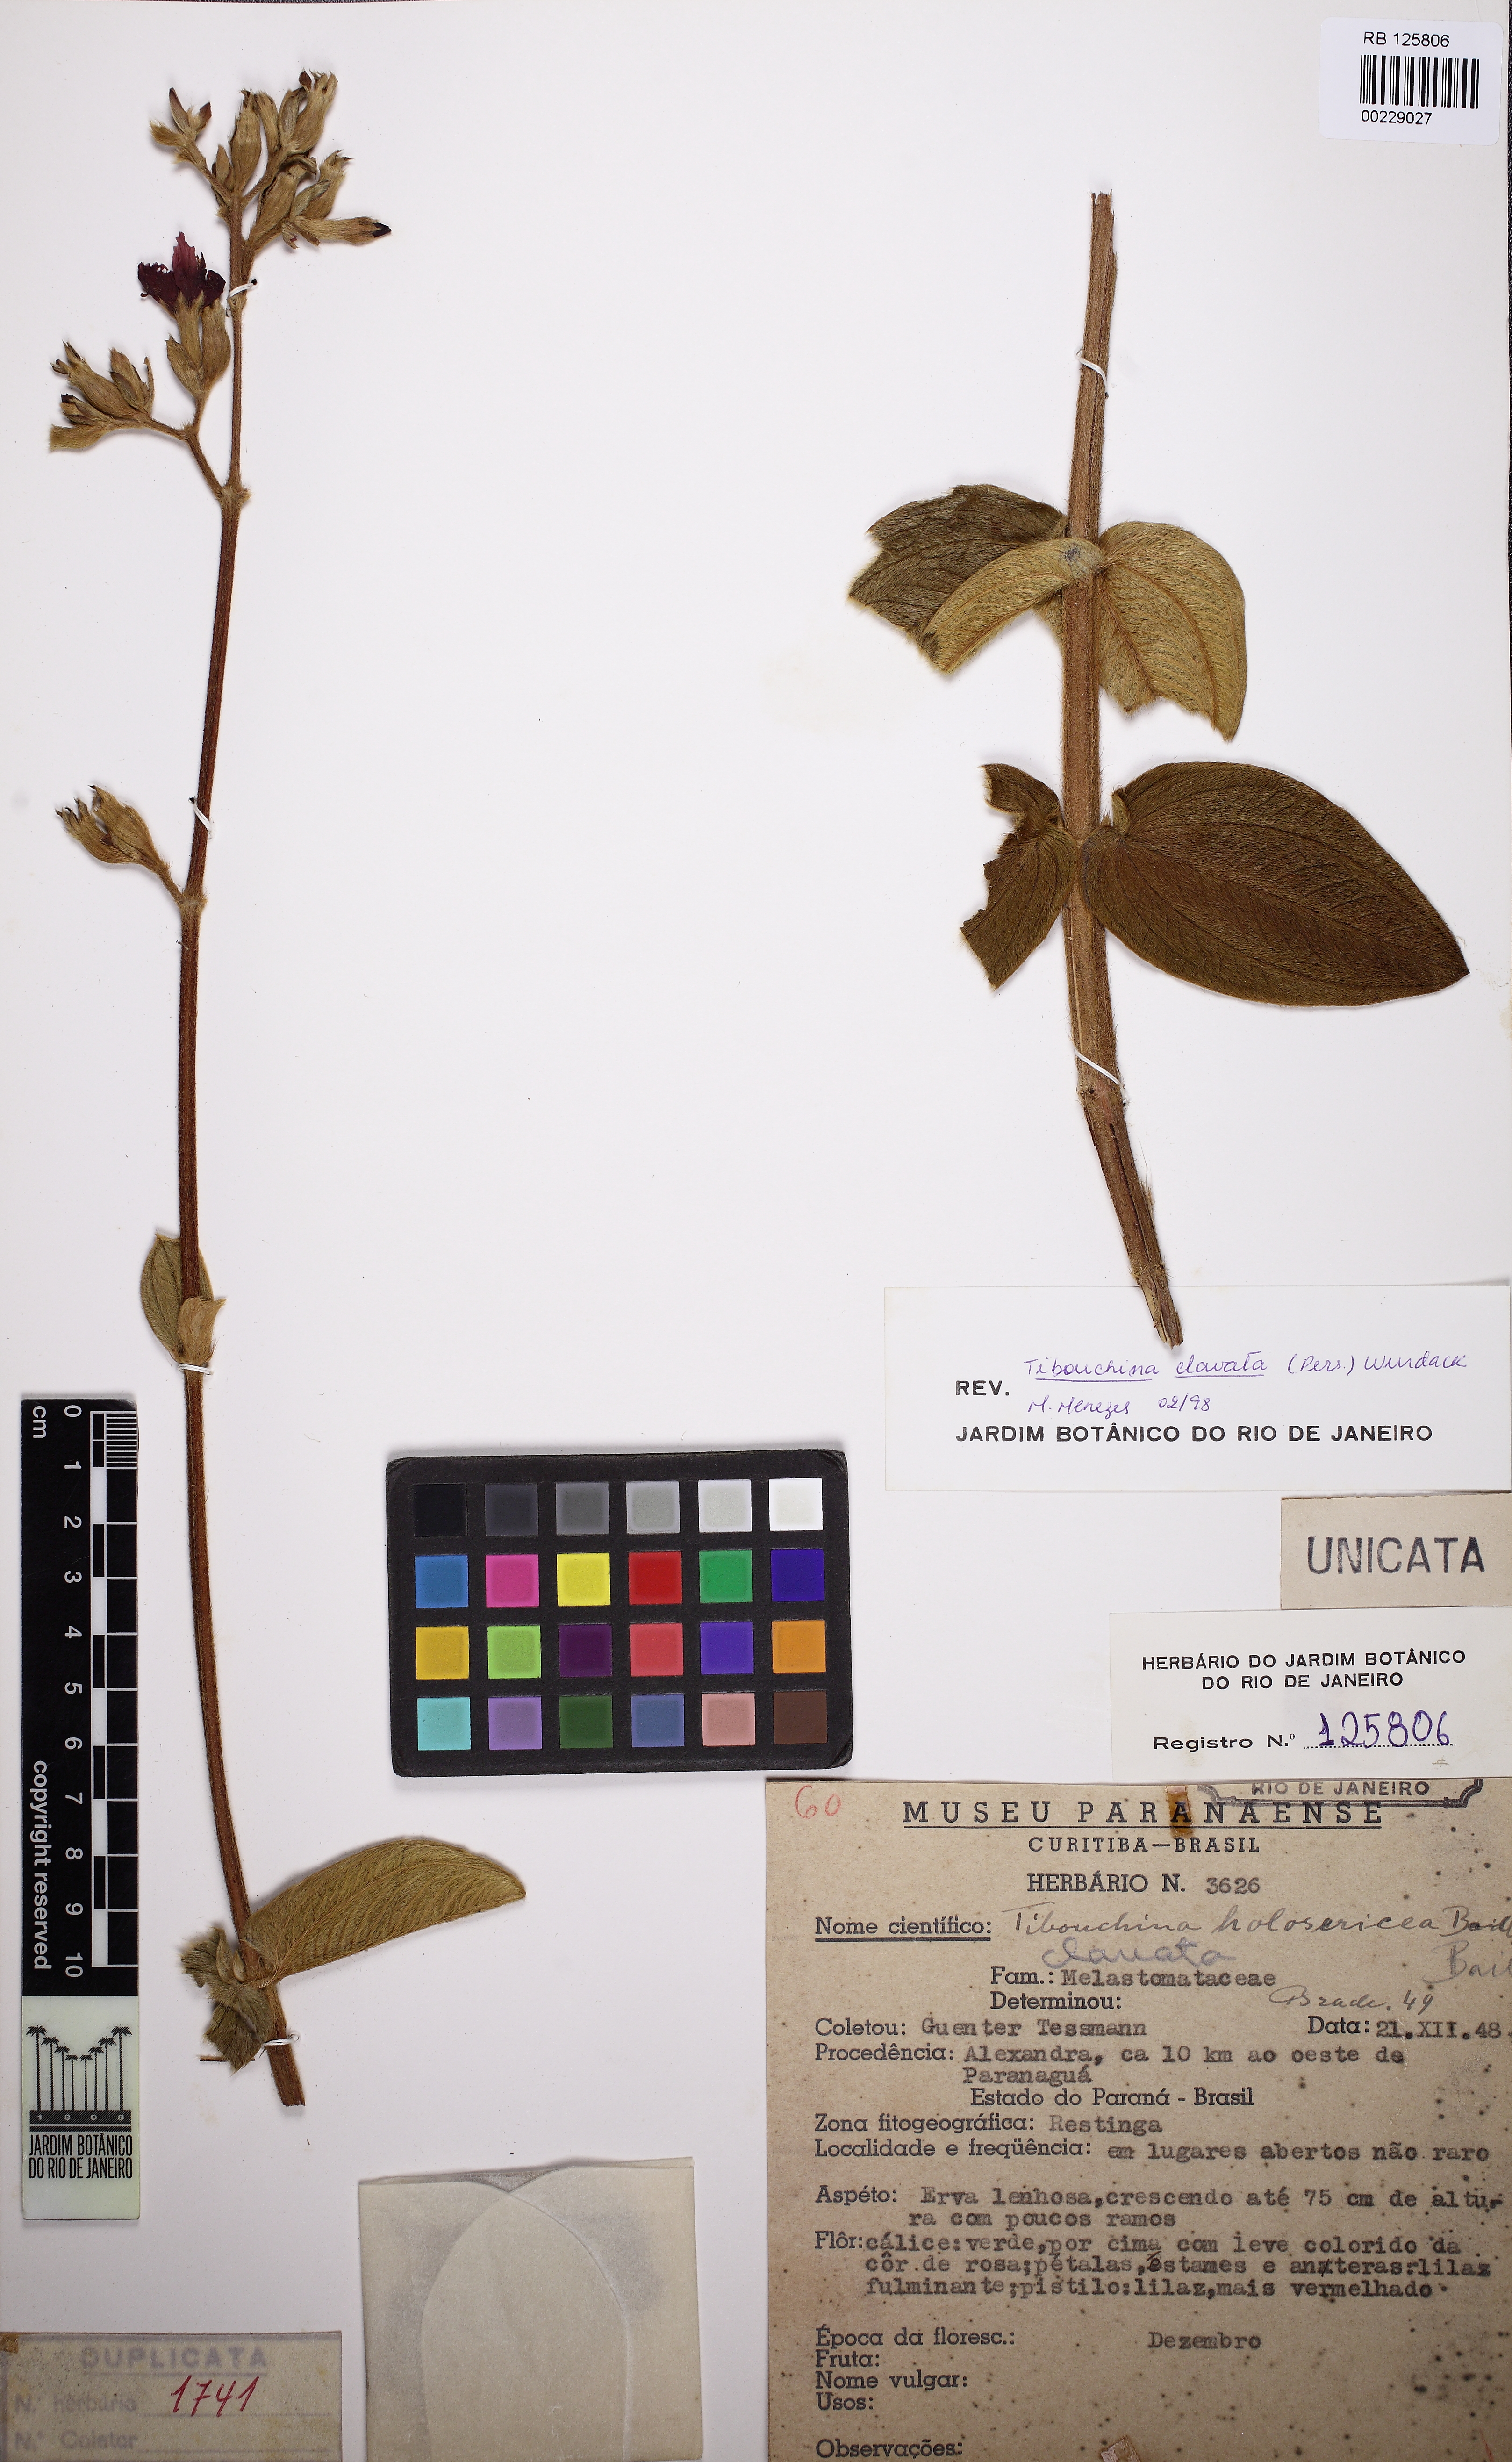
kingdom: Plantae
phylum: Tracheophyta
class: Magnoliopsida
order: Myrtales
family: Melastomataceae
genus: Chaetogastra
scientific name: Chaetogastra kingii
